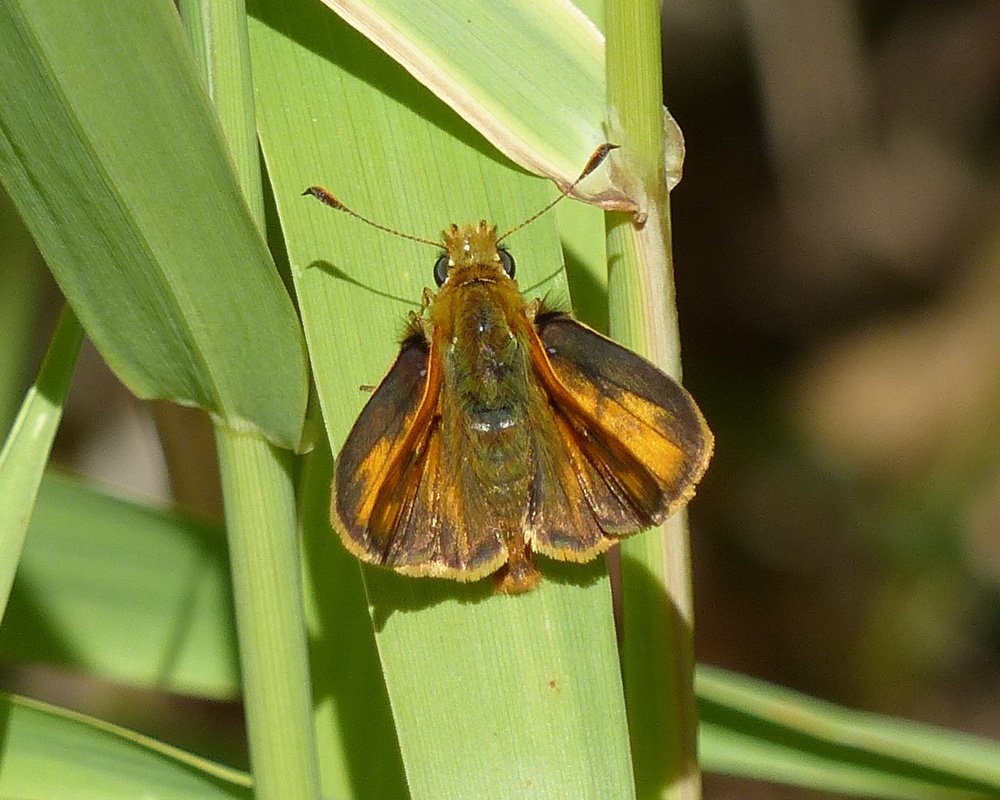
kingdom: Animalia
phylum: Arthropoda
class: Insecta
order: Lepidoptera
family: Hesperiidae
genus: Ochlodes
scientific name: Ochlodes sylvanoides
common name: Woodland Skipper
